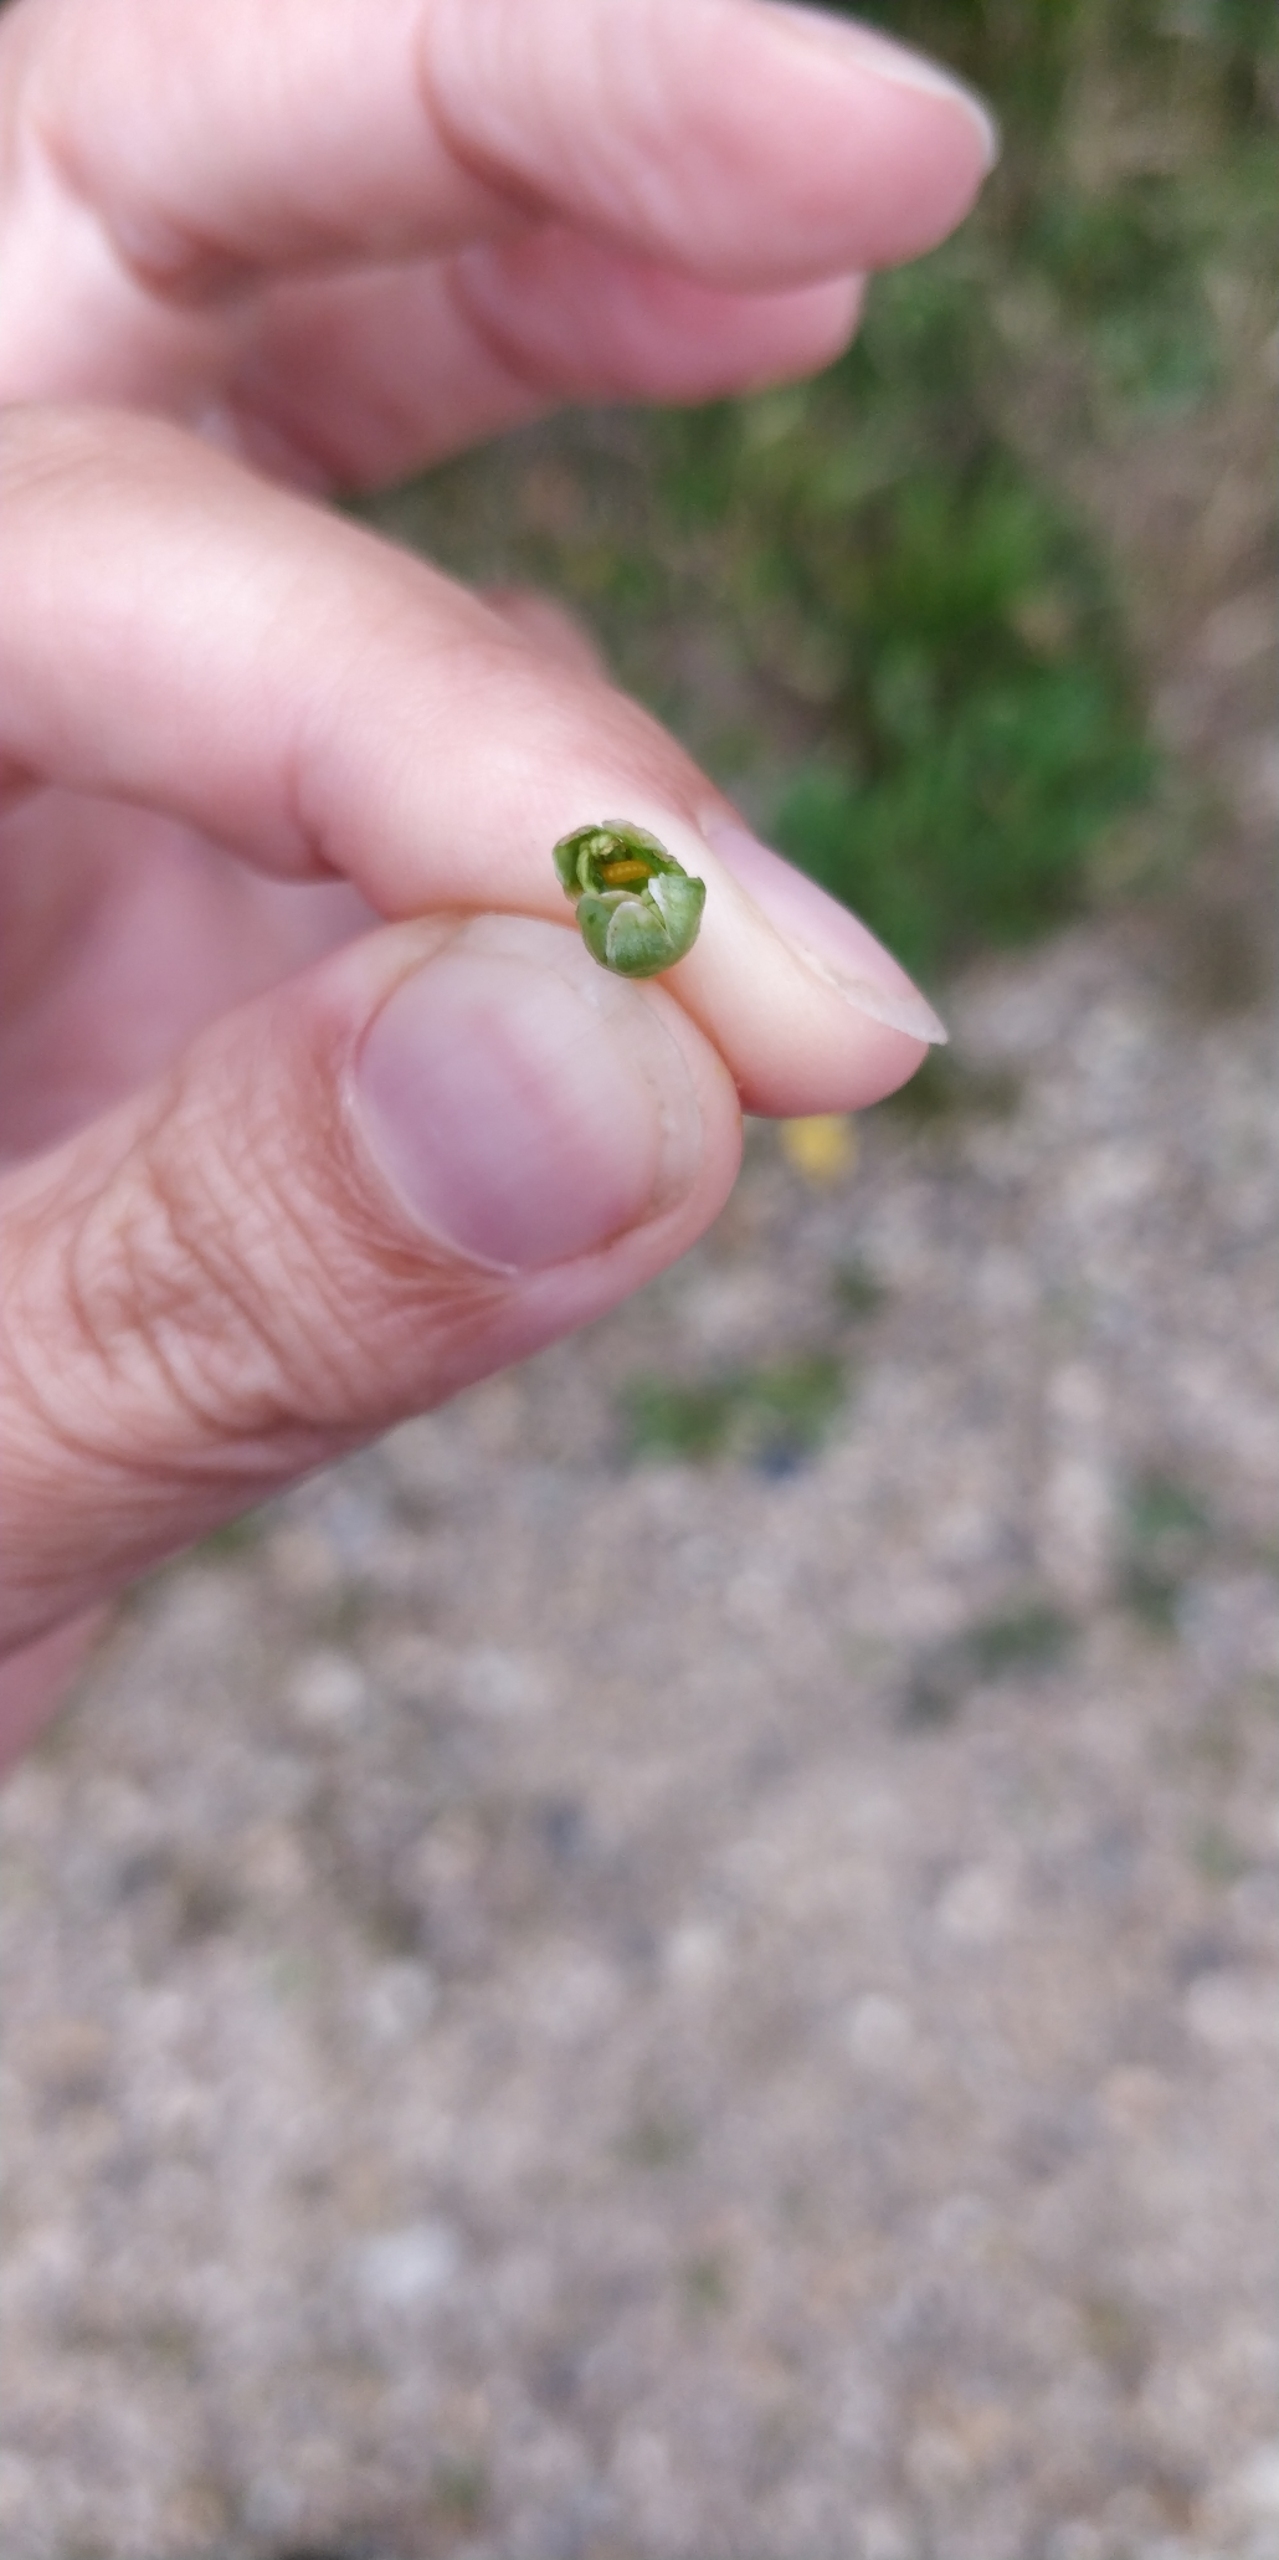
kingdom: Animalia
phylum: Arthropoda
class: Insecta
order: Diptera
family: Cecidomyiidae
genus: Placochela
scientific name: Placochela nigripes
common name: Hyldeblomstgalmyg
